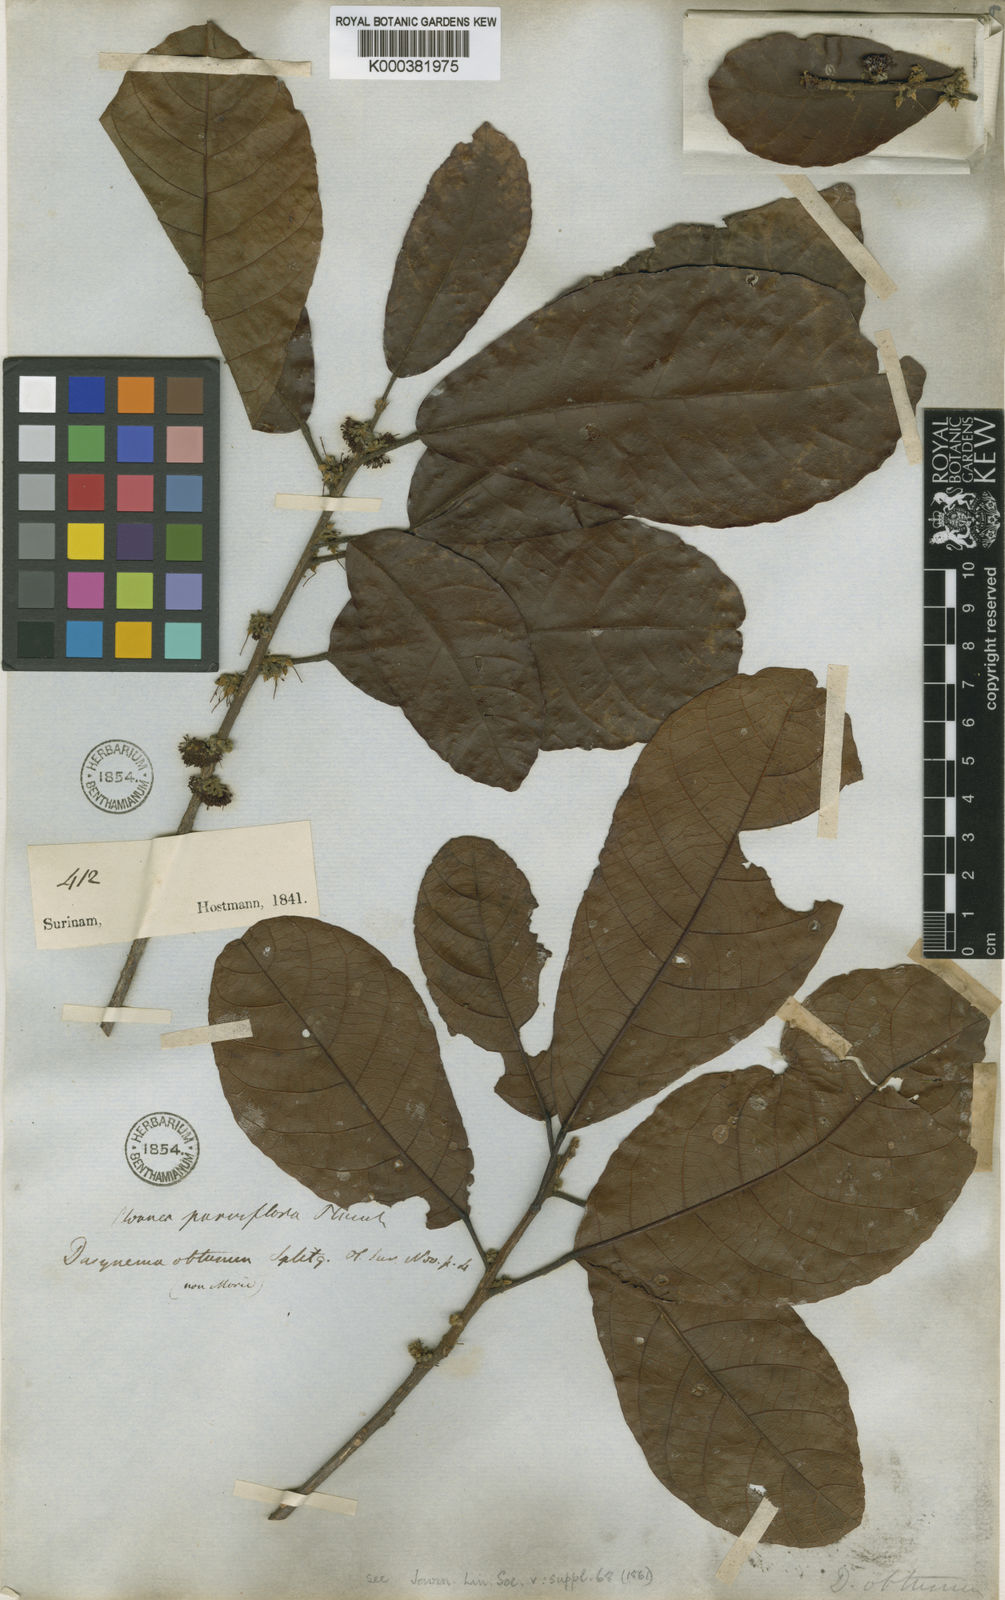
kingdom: Plantae
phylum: Tracheophyta
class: Magnoliopsida
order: Oxalidales
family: Elaeocarpaceae
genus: Sloanea
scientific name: Sloanea kappleriana
